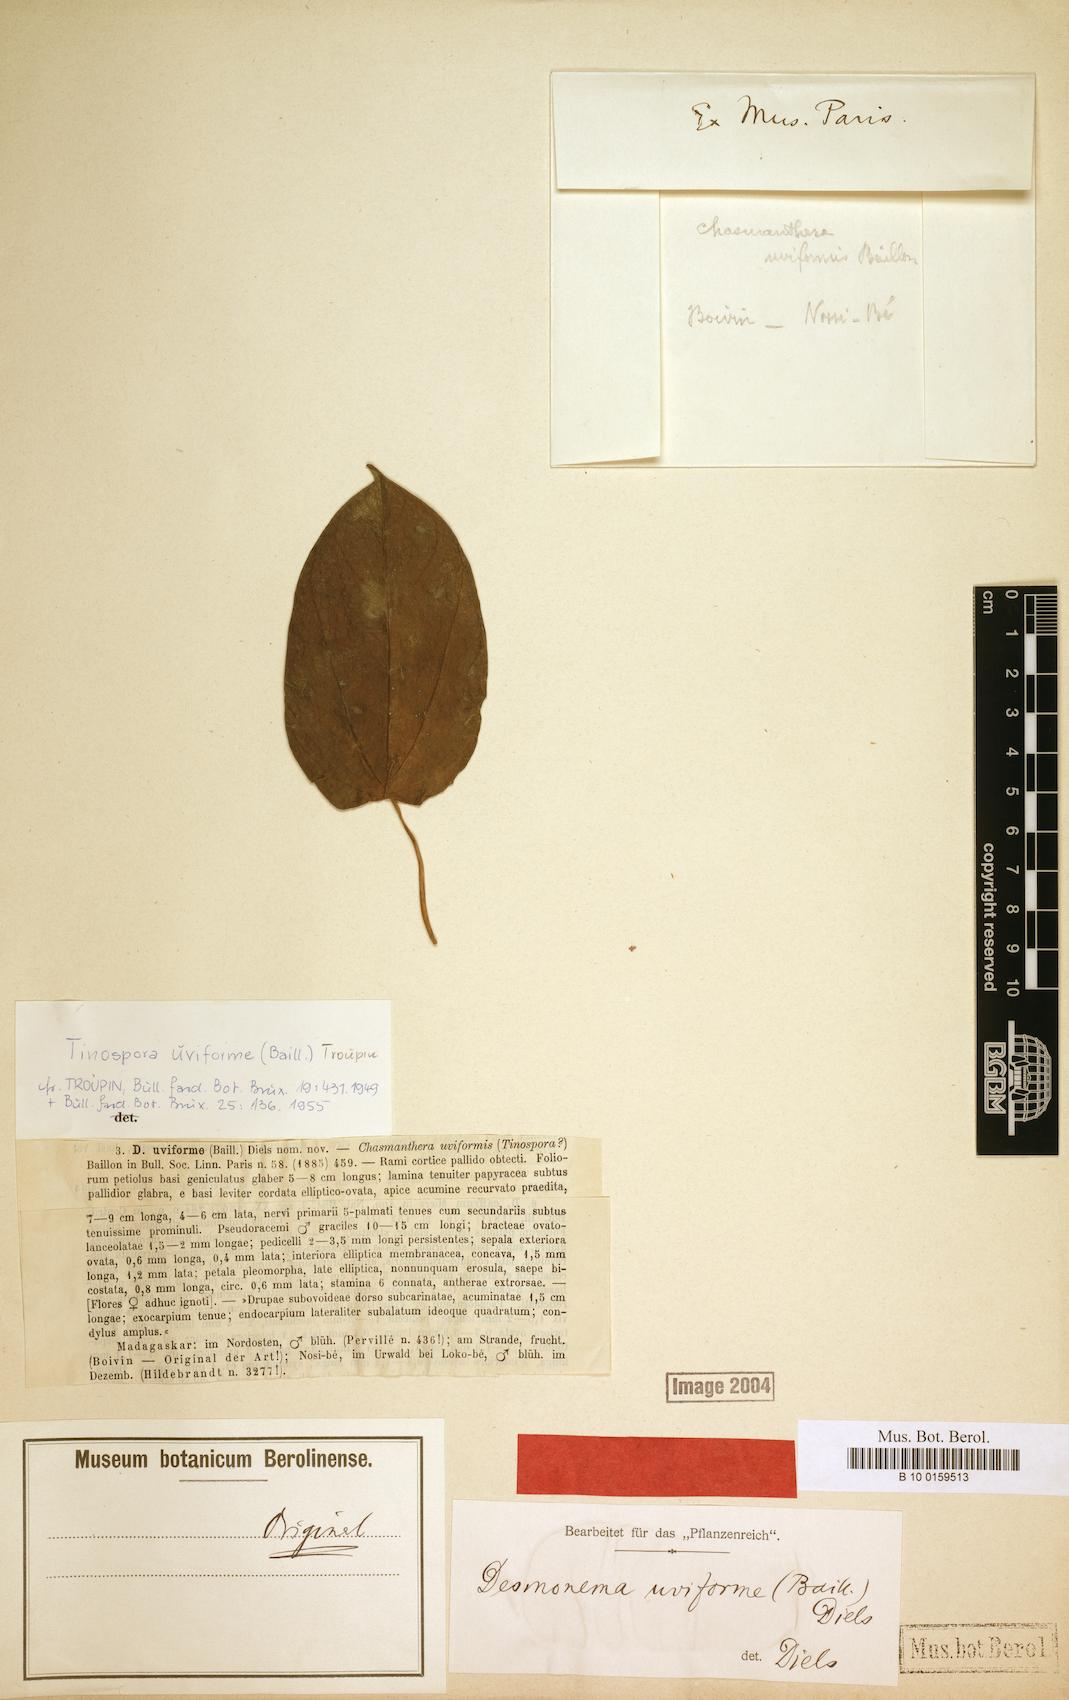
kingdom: Plantae
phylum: Tracheophyta
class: Magnoliopsida
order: Ranunculales
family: Menispermaceae
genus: Tinospora
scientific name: Tinospora uviforme
